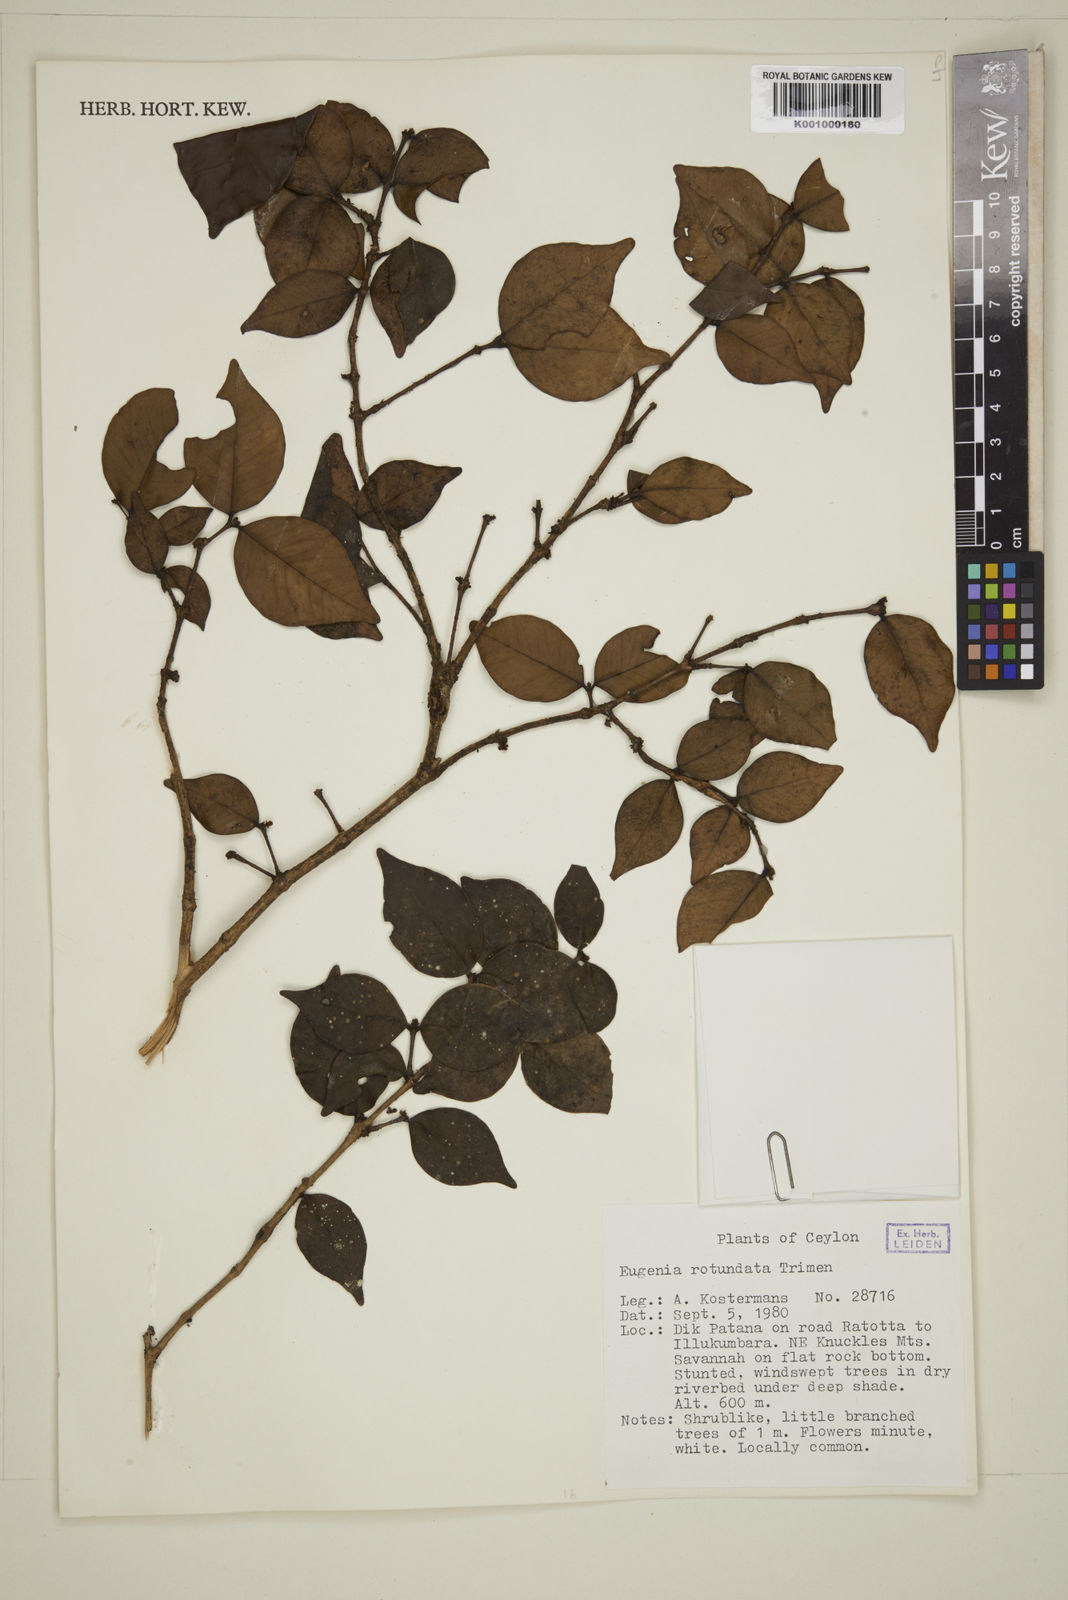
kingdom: Plantae
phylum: Tracheophyta
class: Magnoliopsida
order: Myrtales
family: Myrtaceae
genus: Eugenia
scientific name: Eugenia rotundata
